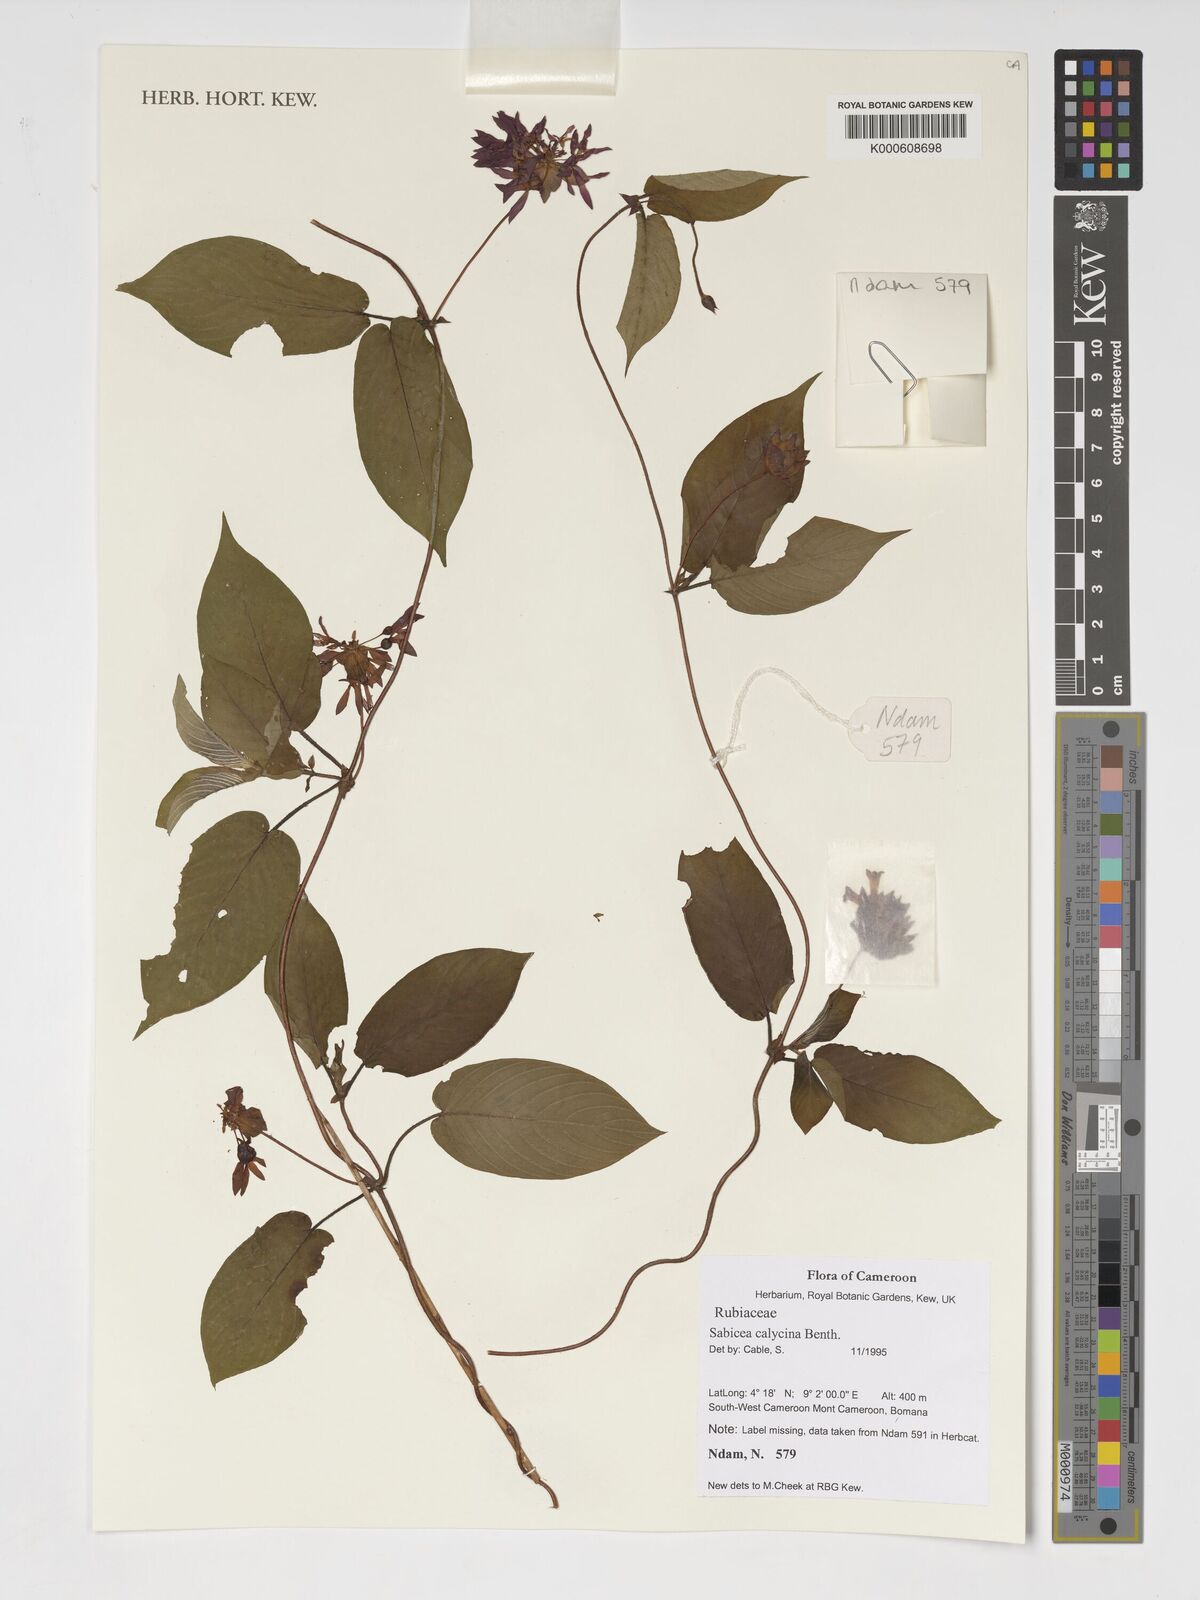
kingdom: Plantae
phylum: Tracheophyta
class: Magnoliopsida
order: Gentianales
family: Rubiaceae
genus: Sabicea
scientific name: Sabicea calycina
